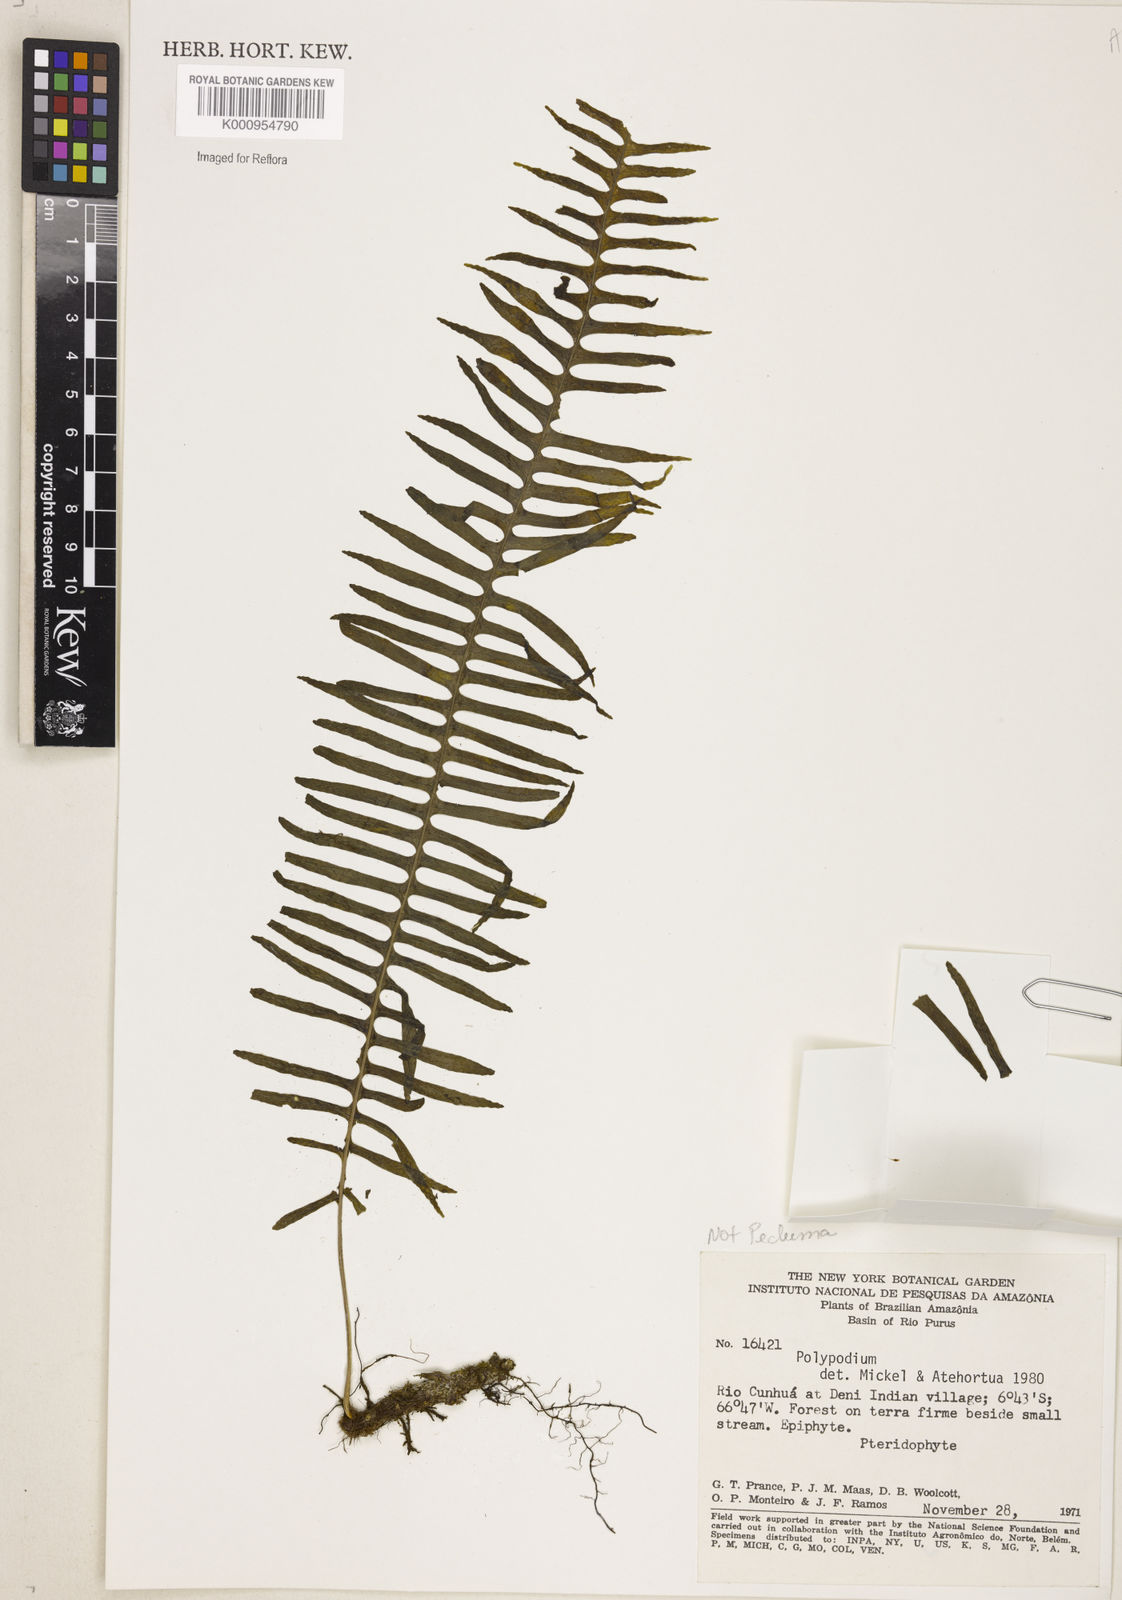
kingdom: Plantae
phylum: Tracheophyta
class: Polypodiopsida
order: Polypodiales
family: Polypodiaceae
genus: Pecluma
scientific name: Pecluma
